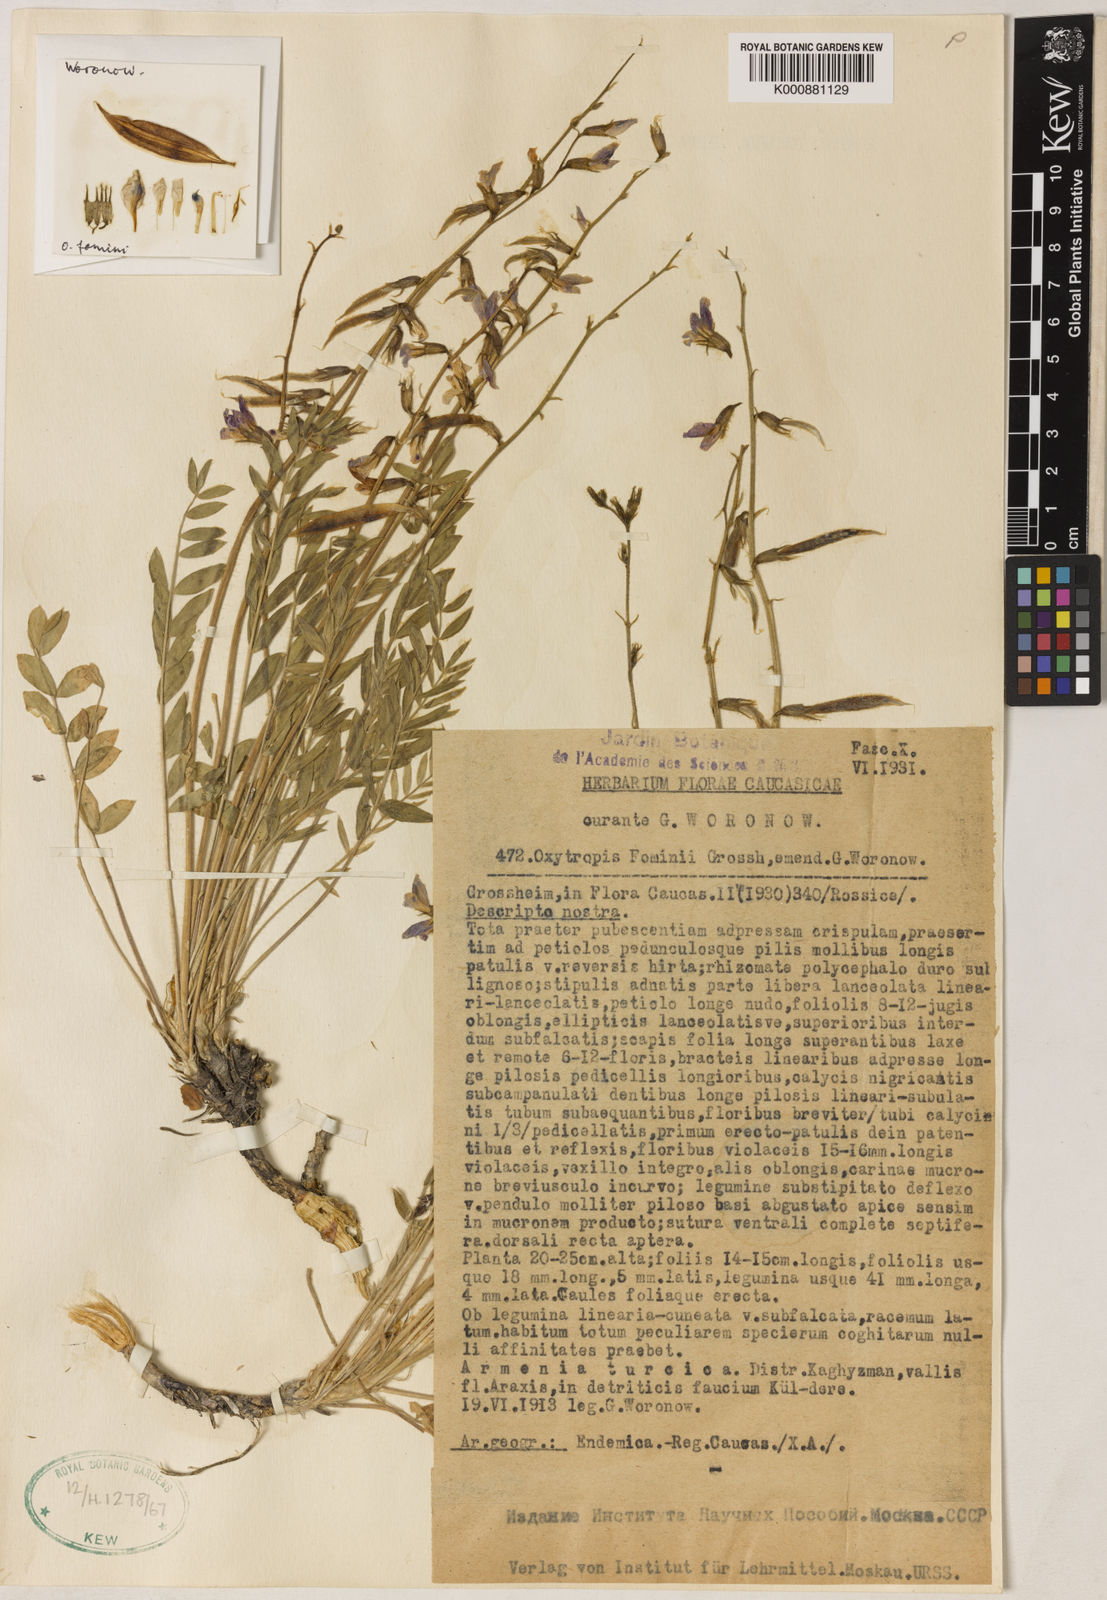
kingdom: Plantae
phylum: Tracheophyta
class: Magnoliopsida
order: Fabales
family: Fabaceae
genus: Oxytropis
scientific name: Oxytropis argyroleuca
